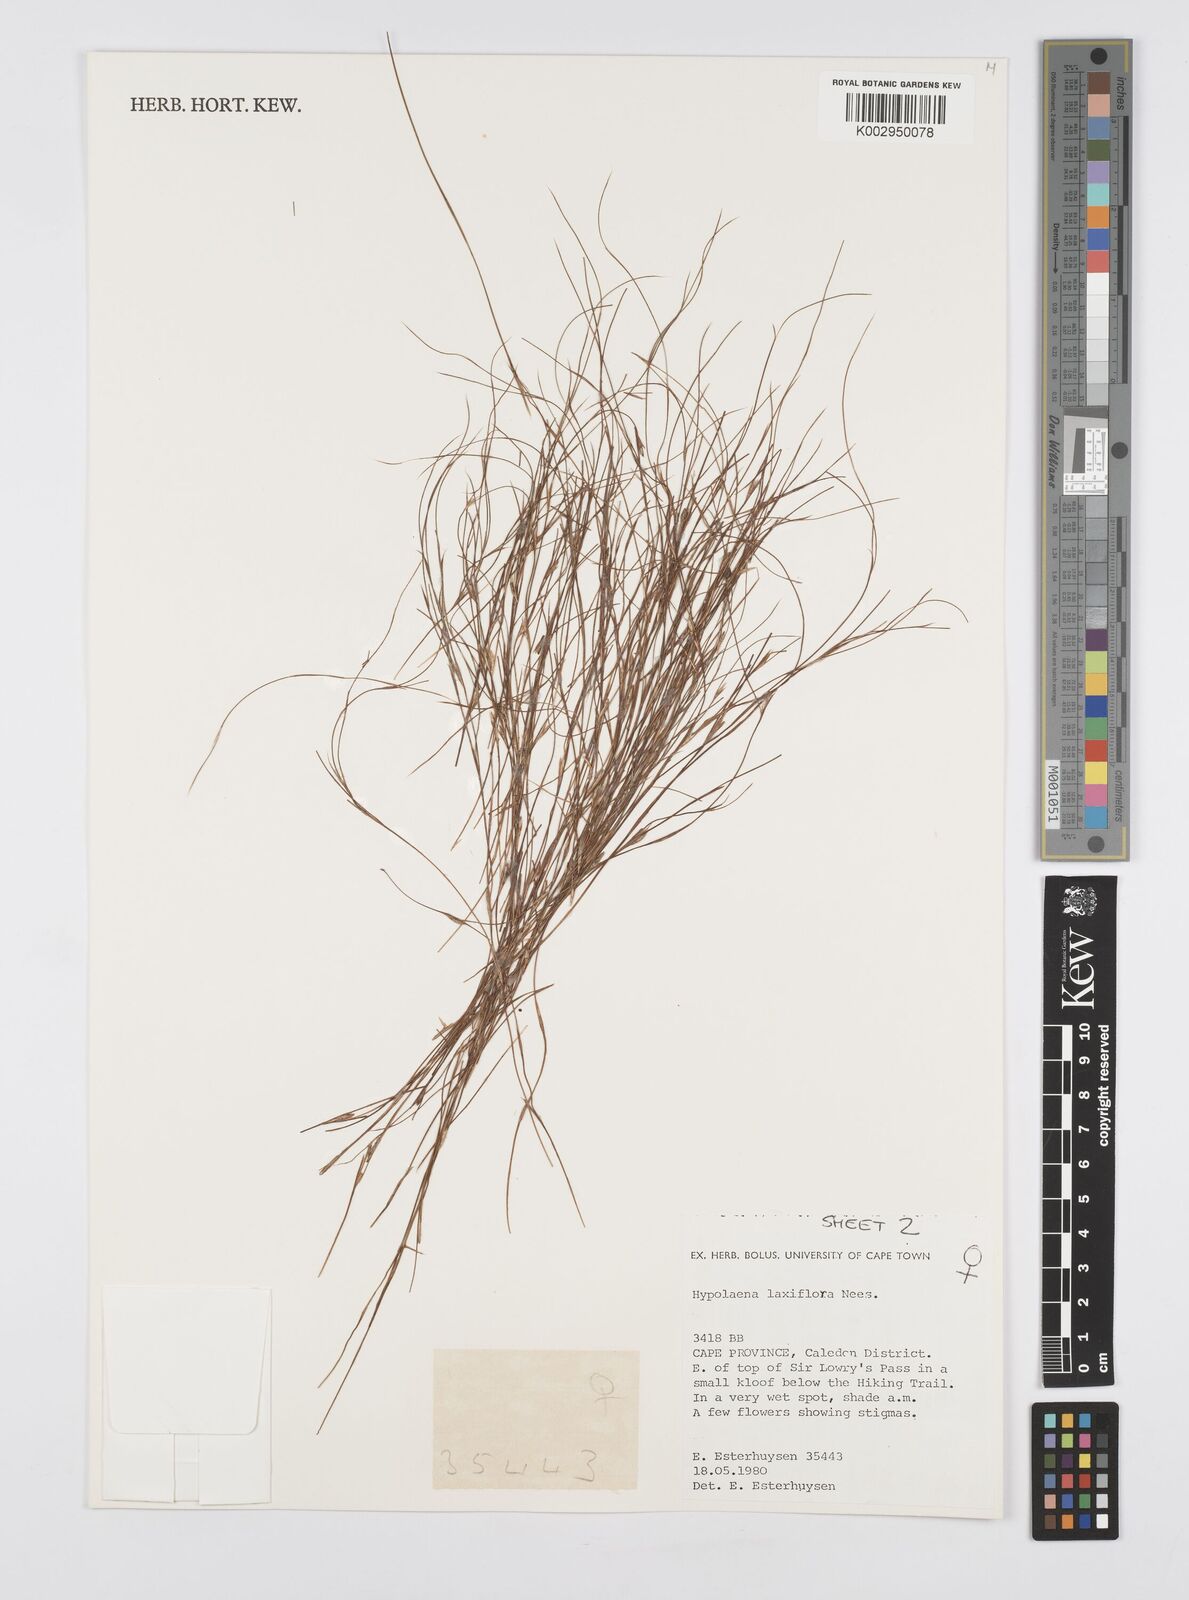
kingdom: Plantae
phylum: Tracheophyta
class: Liliopsida
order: Poales
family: Restionaceae
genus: Anthochortus
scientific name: Anthochortus laxiflorus
